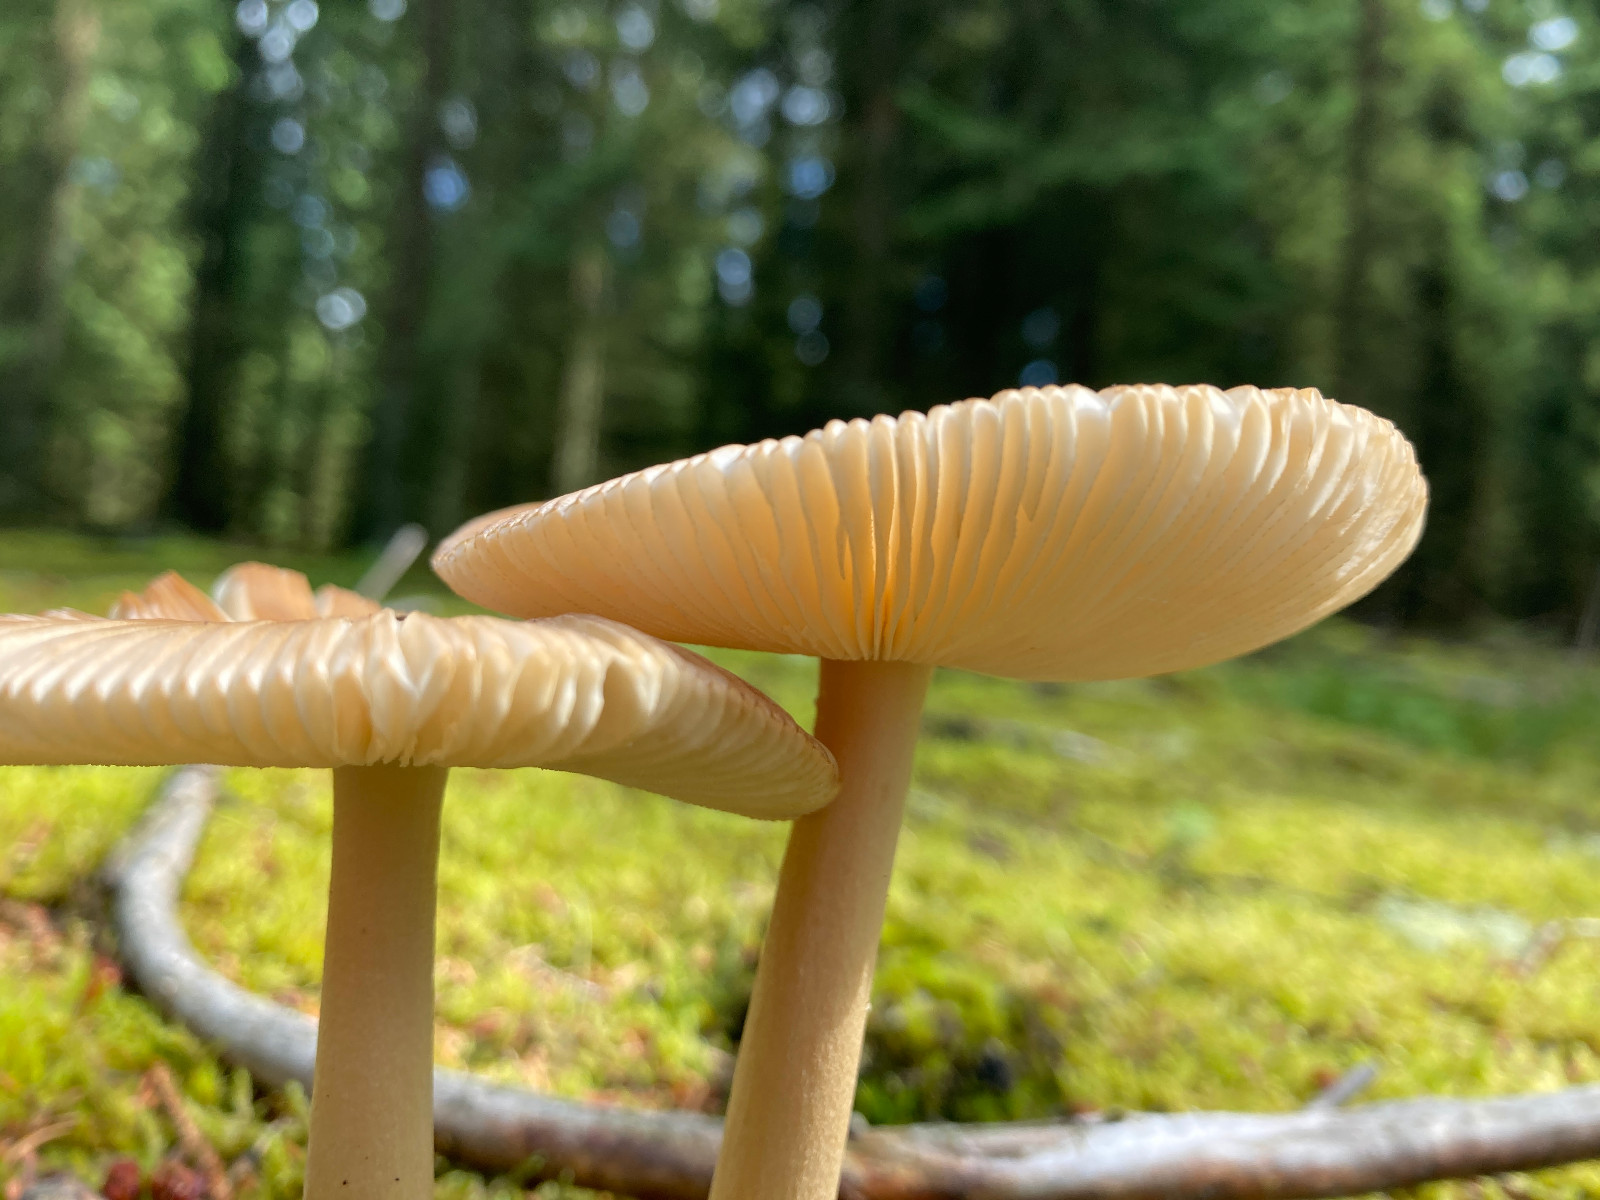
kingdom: Fungi
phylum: Basidiomycota
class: Agaricomycetes
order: Agaricales
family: Amanitaceae
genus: Amanita
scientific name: Amanita fulva
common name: brun kam-fluesvamp
